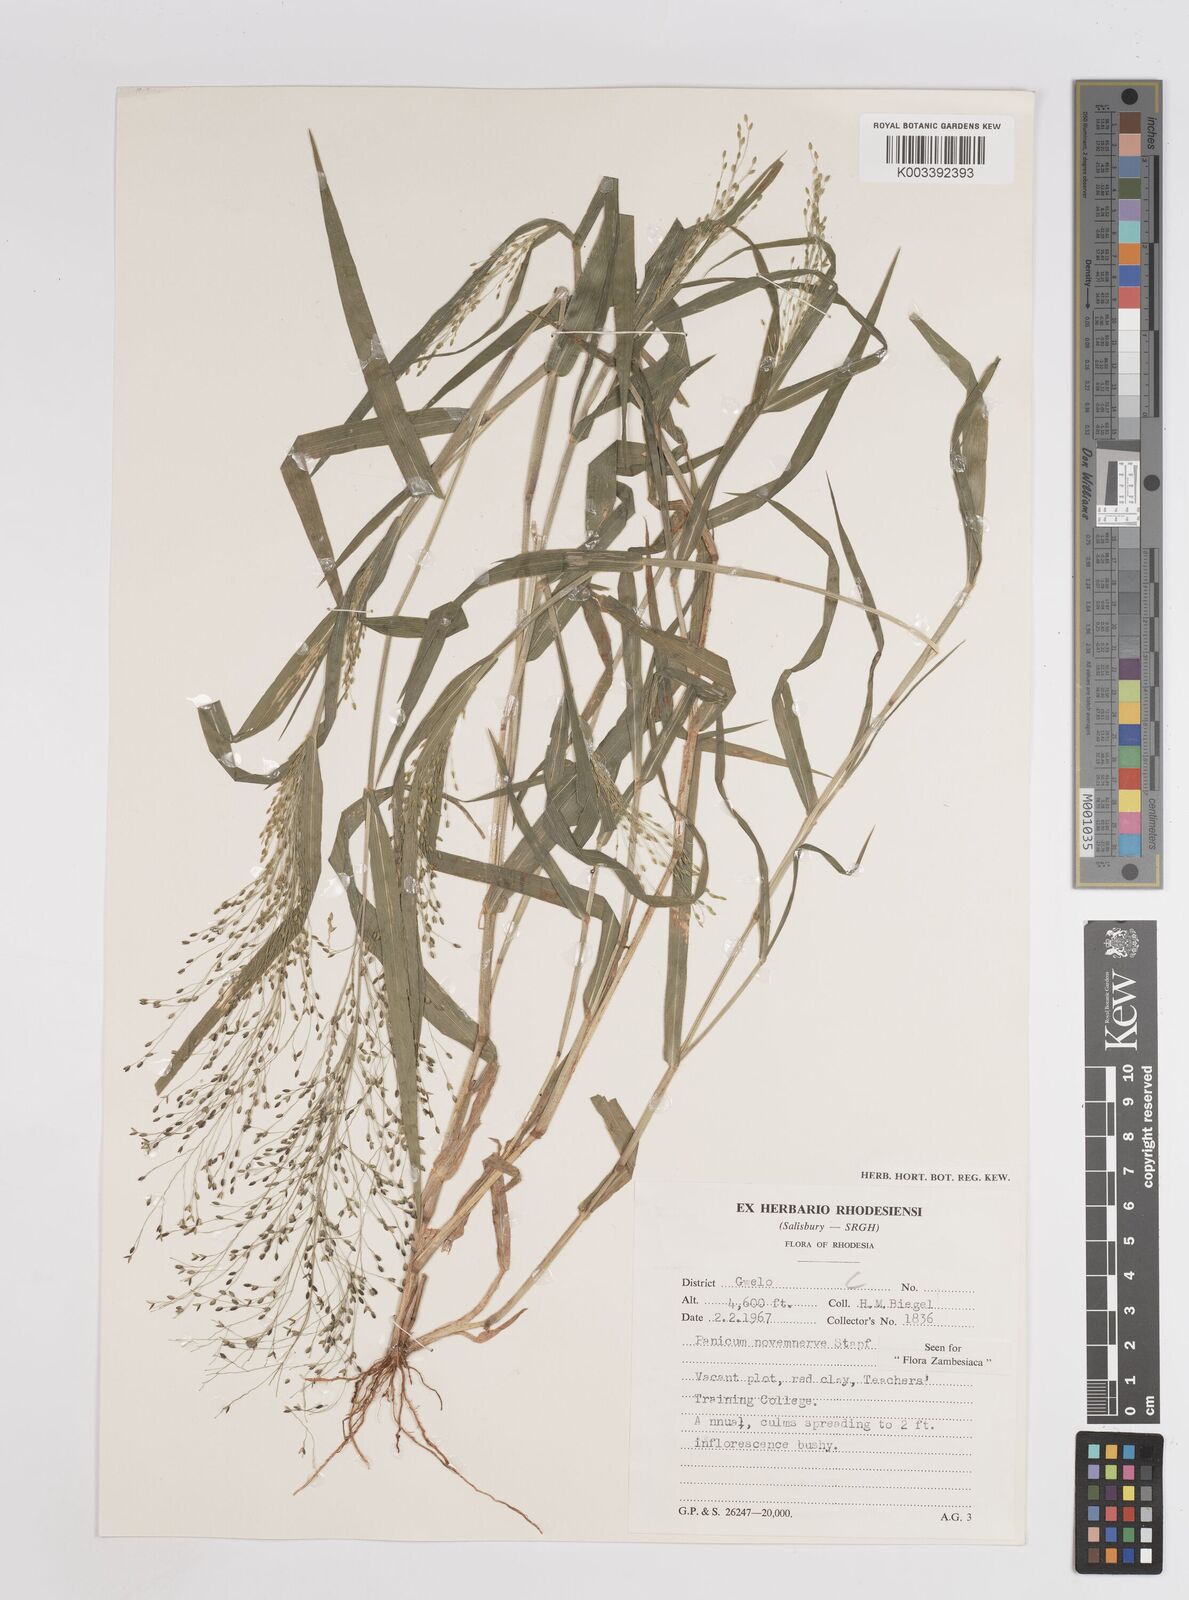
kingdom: Plantae
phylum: Tracheophyta
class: Liliopsida
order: Poales
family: Poaceae
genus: Panicum
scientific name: Panicum novemnerve
